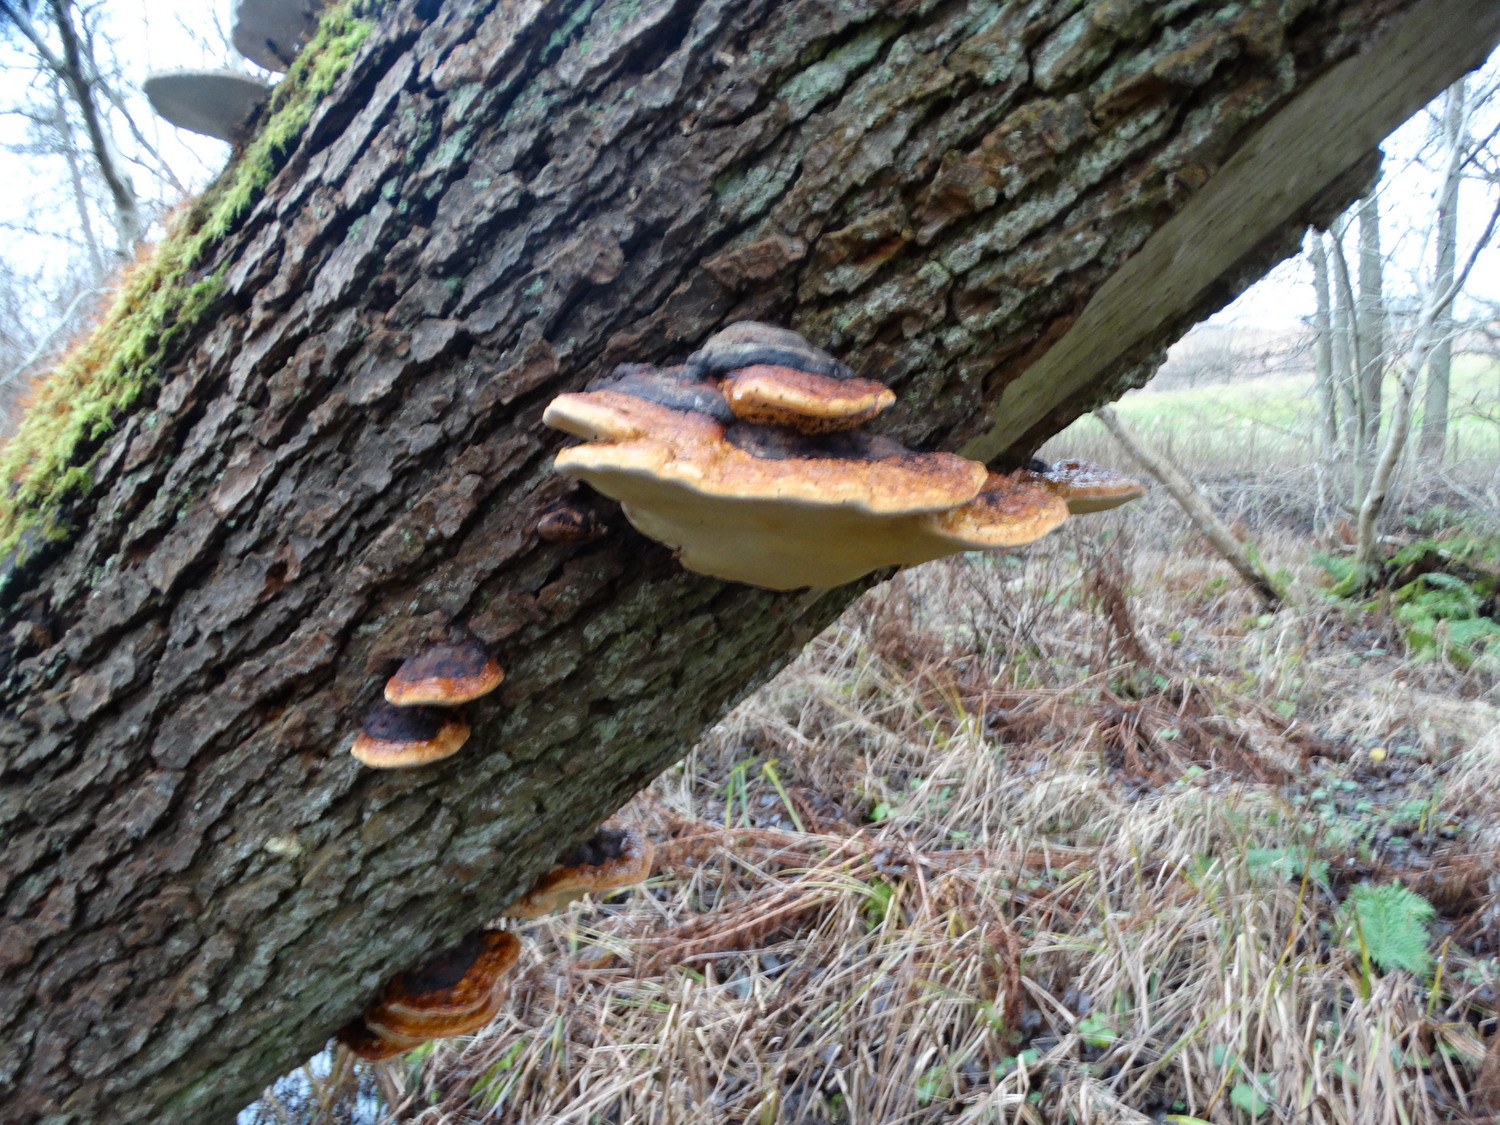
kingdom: Fungi
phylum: Basidiomycota
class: Agaricomycetes
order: Polyporales
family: Fomitopsidaceae
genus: Fomitopsis
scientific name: Fomitopsis pinicola
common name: randbæltet hovporesvamp
